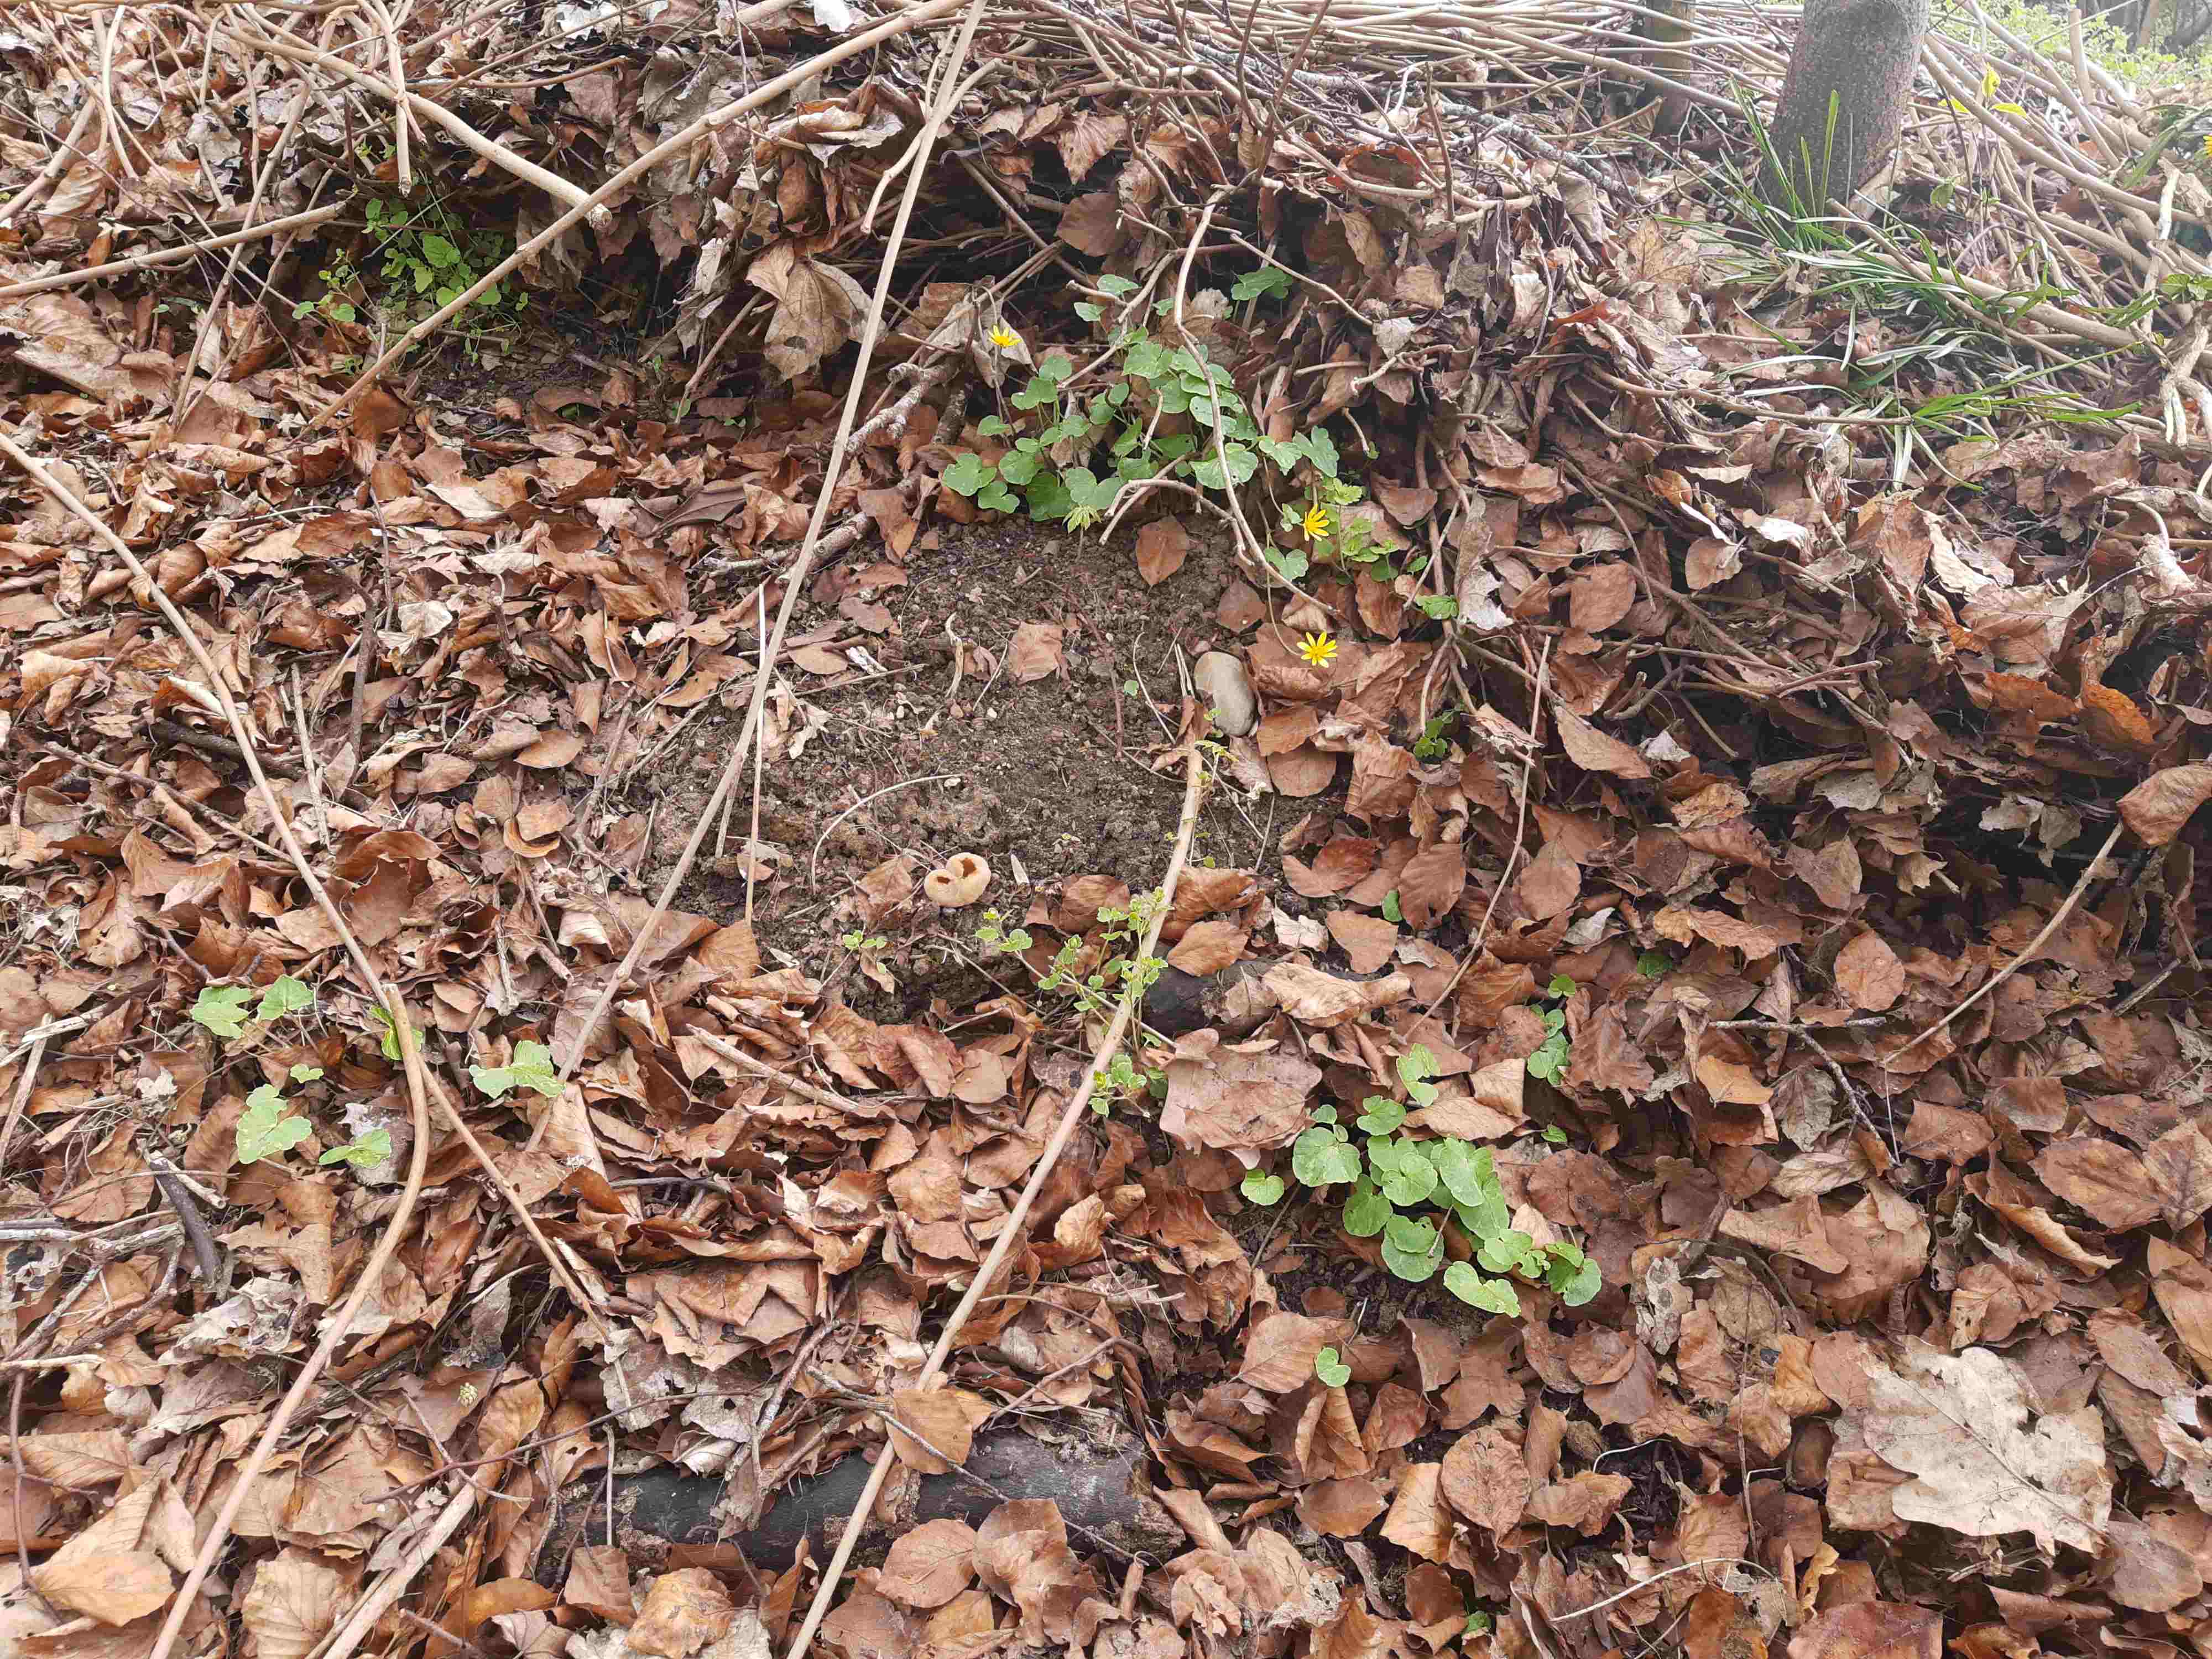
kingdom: Fungi
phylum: Ascomycota
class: Pezizomycetes
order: Pezizales
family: Pezizaceae
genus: Peziza
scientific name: Peziza vesiculosa
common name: blære-bægersvamp
